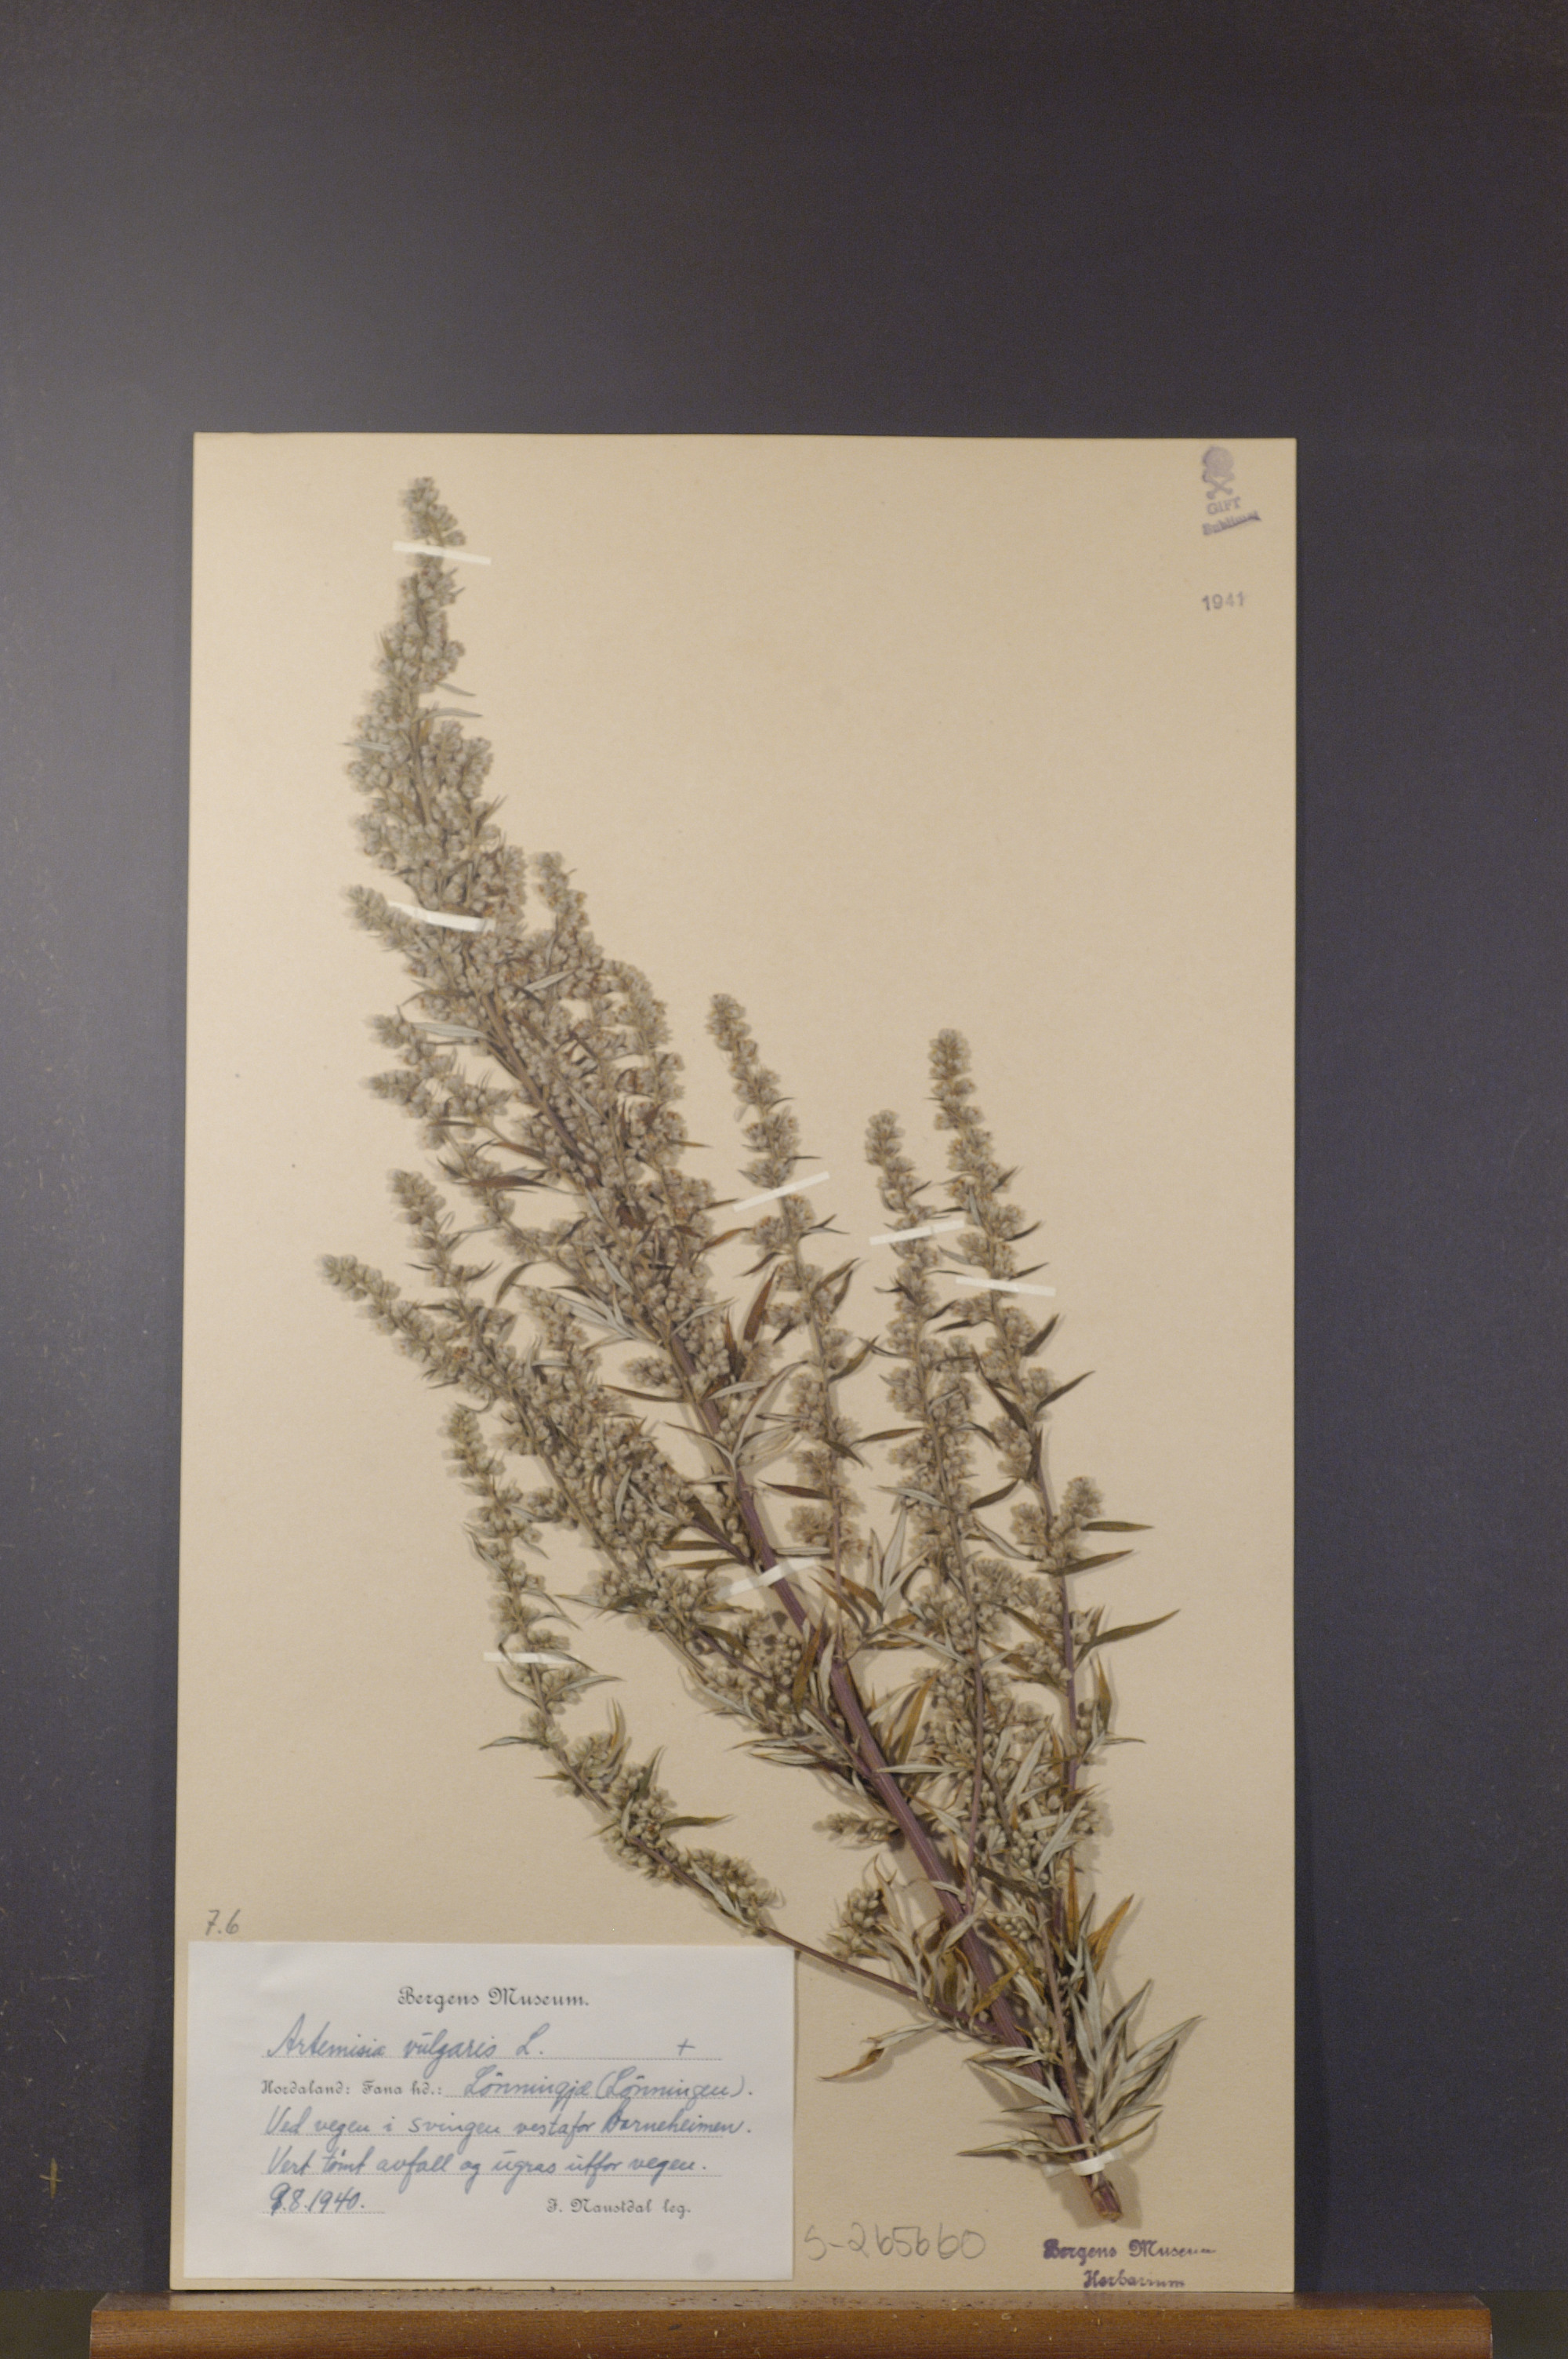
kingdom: Plantae
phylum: Tracheophyta
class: Magnoliopsida
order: Asterales
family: Asteraceae
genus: Artemisia
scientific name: Artemisia vulgaris
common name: Mugwort
